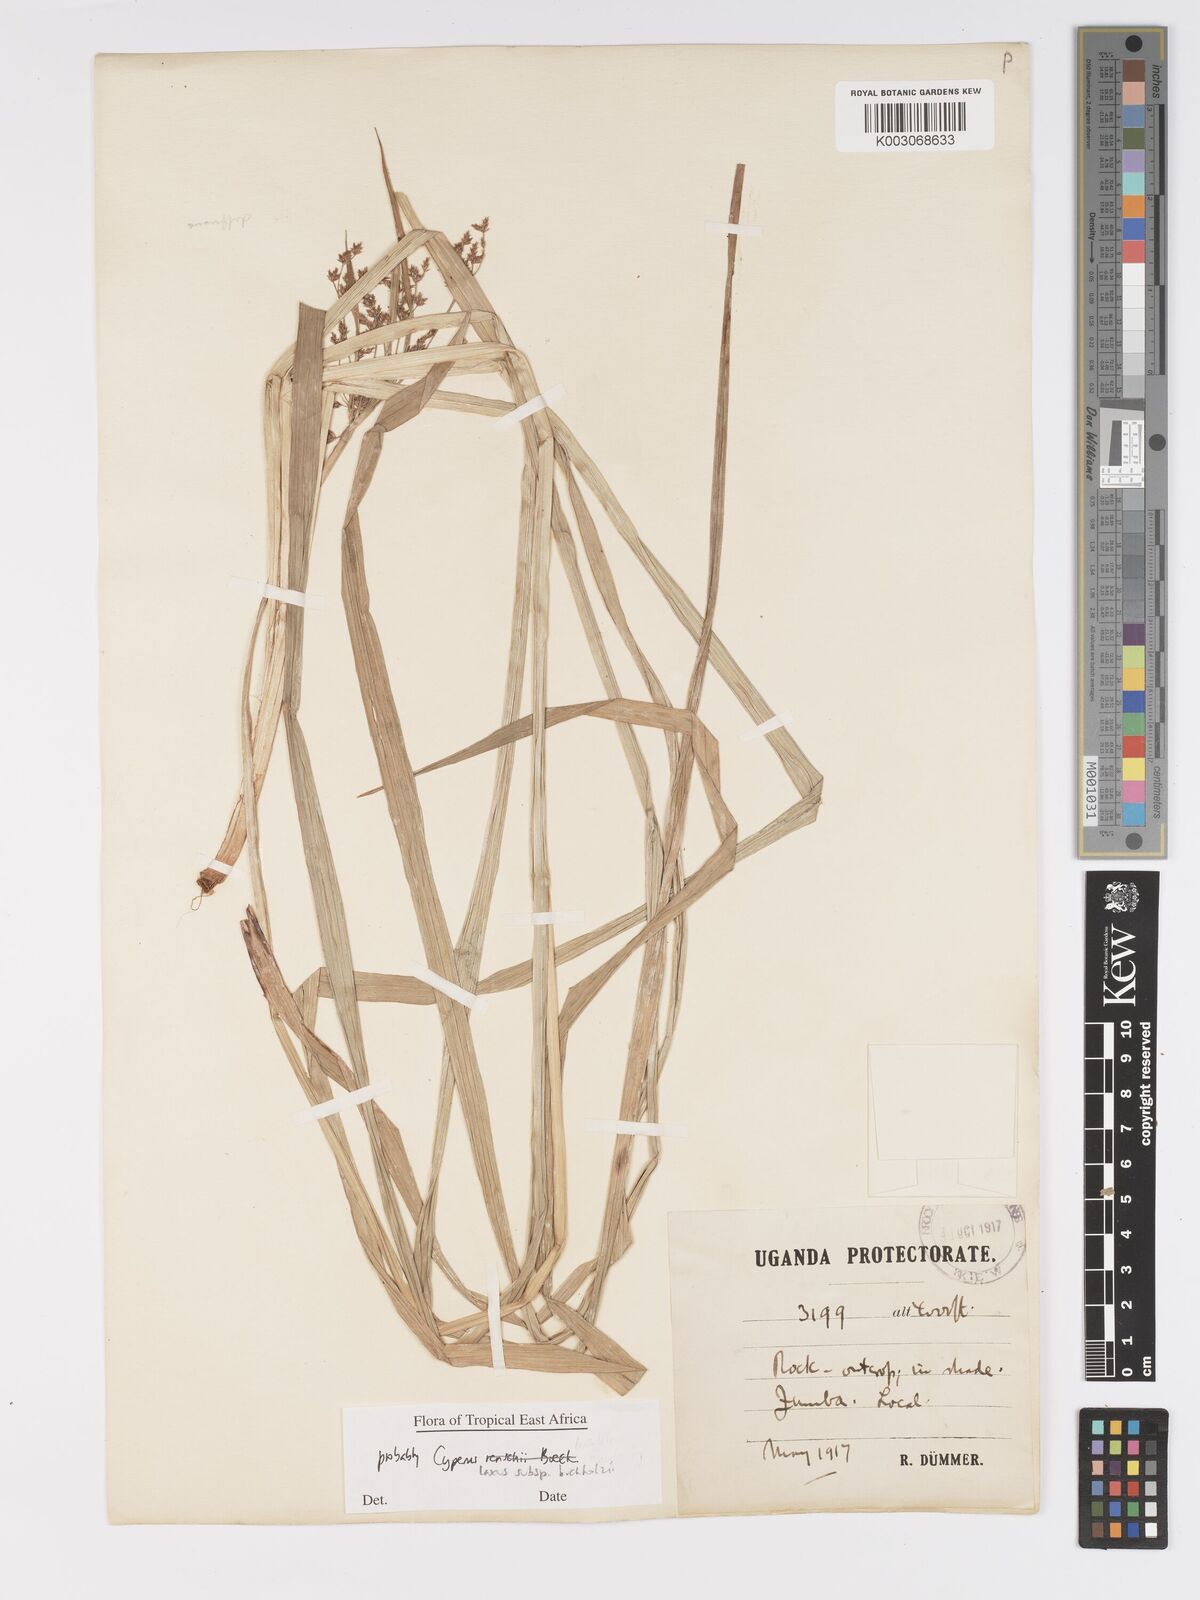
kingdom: Plantae
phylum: Tracheophyta
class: Liliopsida
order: Poales
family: Cyperaceae
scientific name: Cyperaceae
